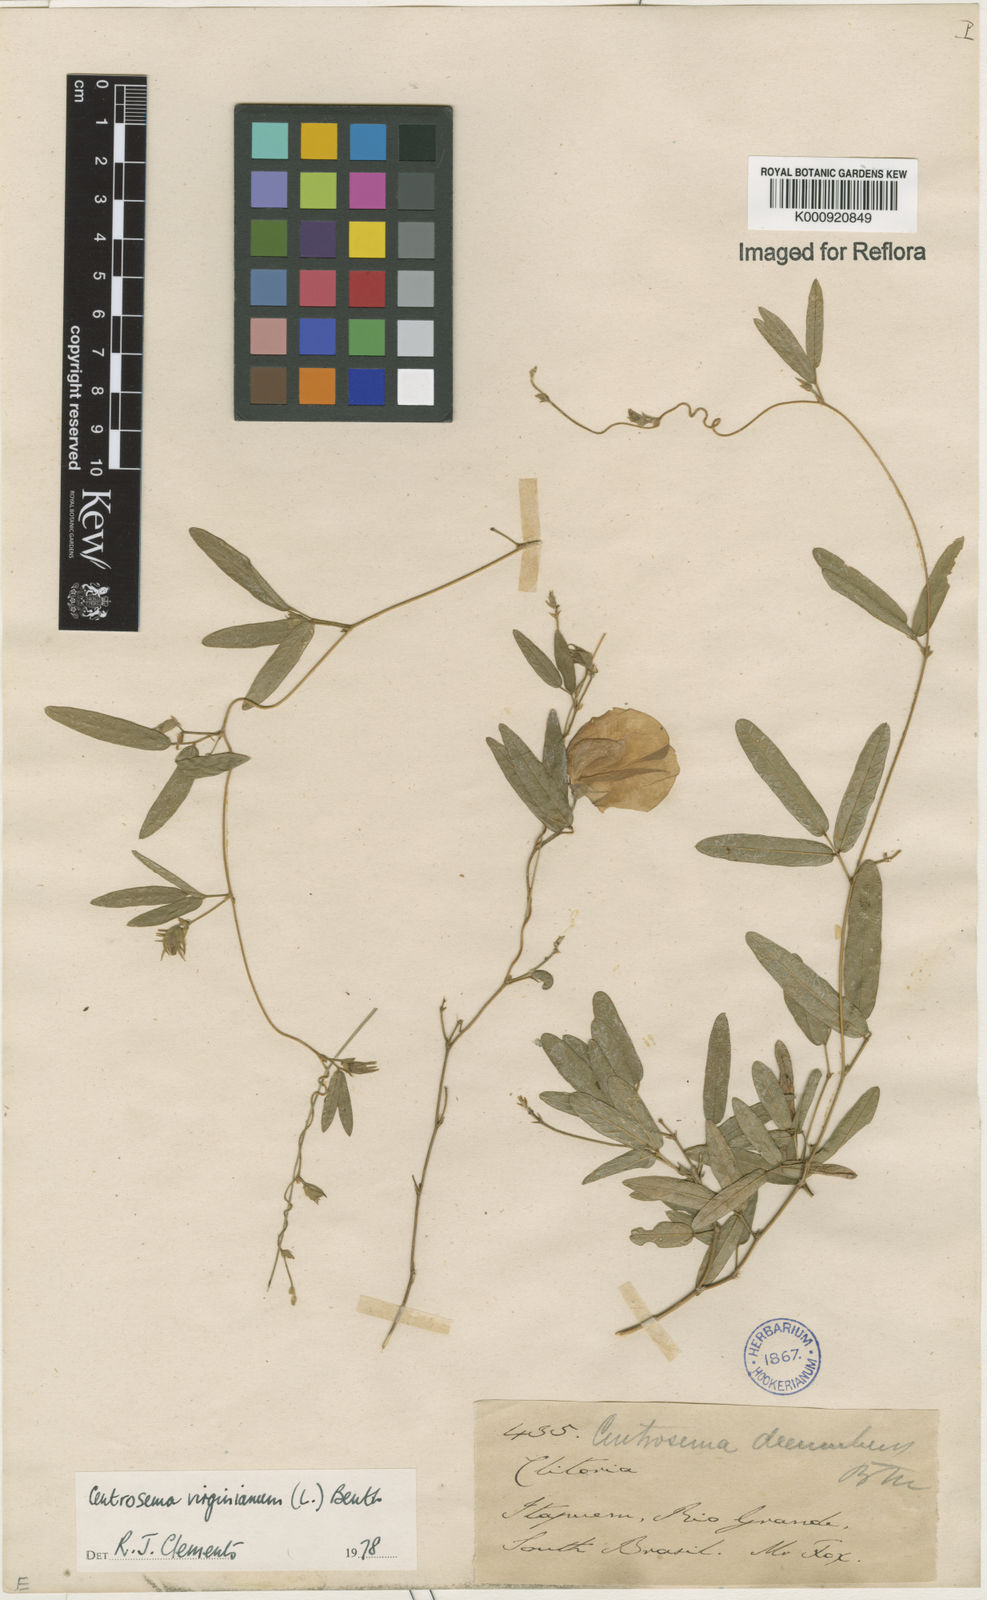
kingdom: Plantae
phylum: Tracheophyta
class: Magnoliopsida
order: Fabales
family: Fabaceae
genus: Centrosema
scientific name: Centrosema virginianum
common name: Butterfly-pea
